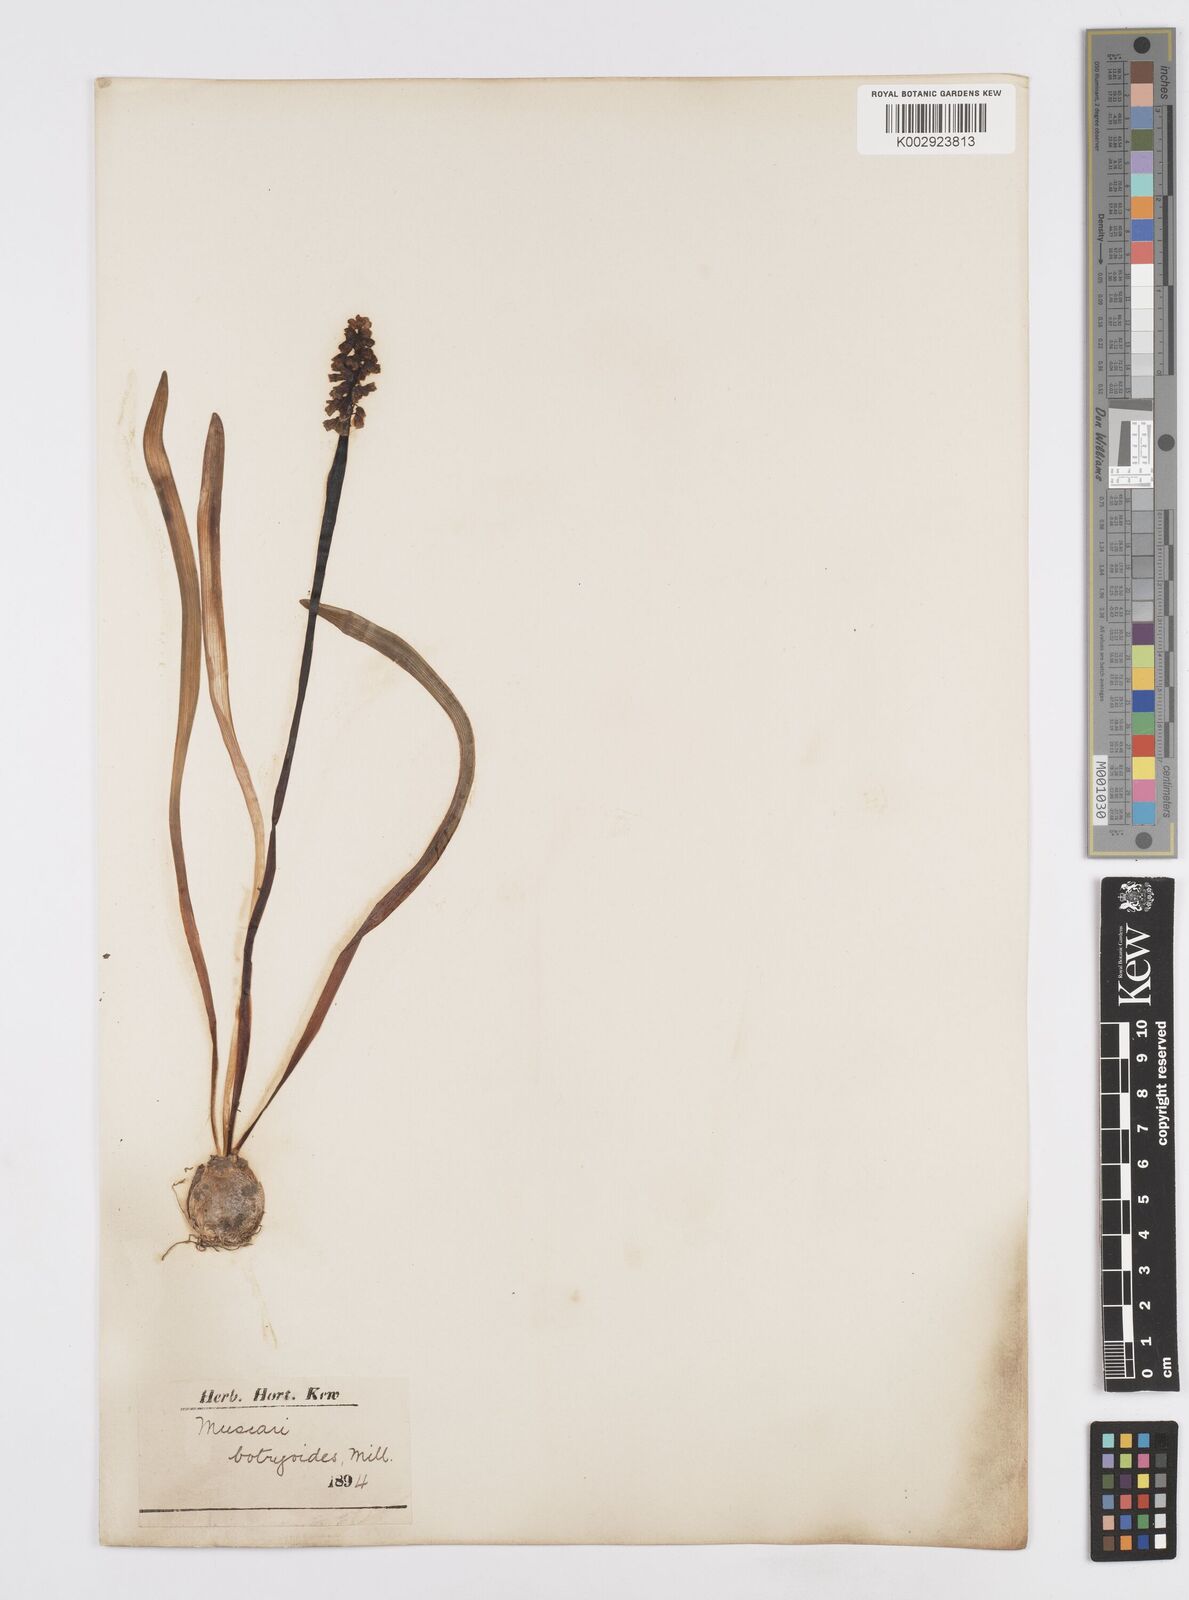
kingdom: Plantae
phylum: Tracheophyta
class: Liliopsida
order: Asparagales
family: Asparagaceae
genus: Muscari
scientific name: Muscari botryoides
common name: Compact grape-hyacinth
